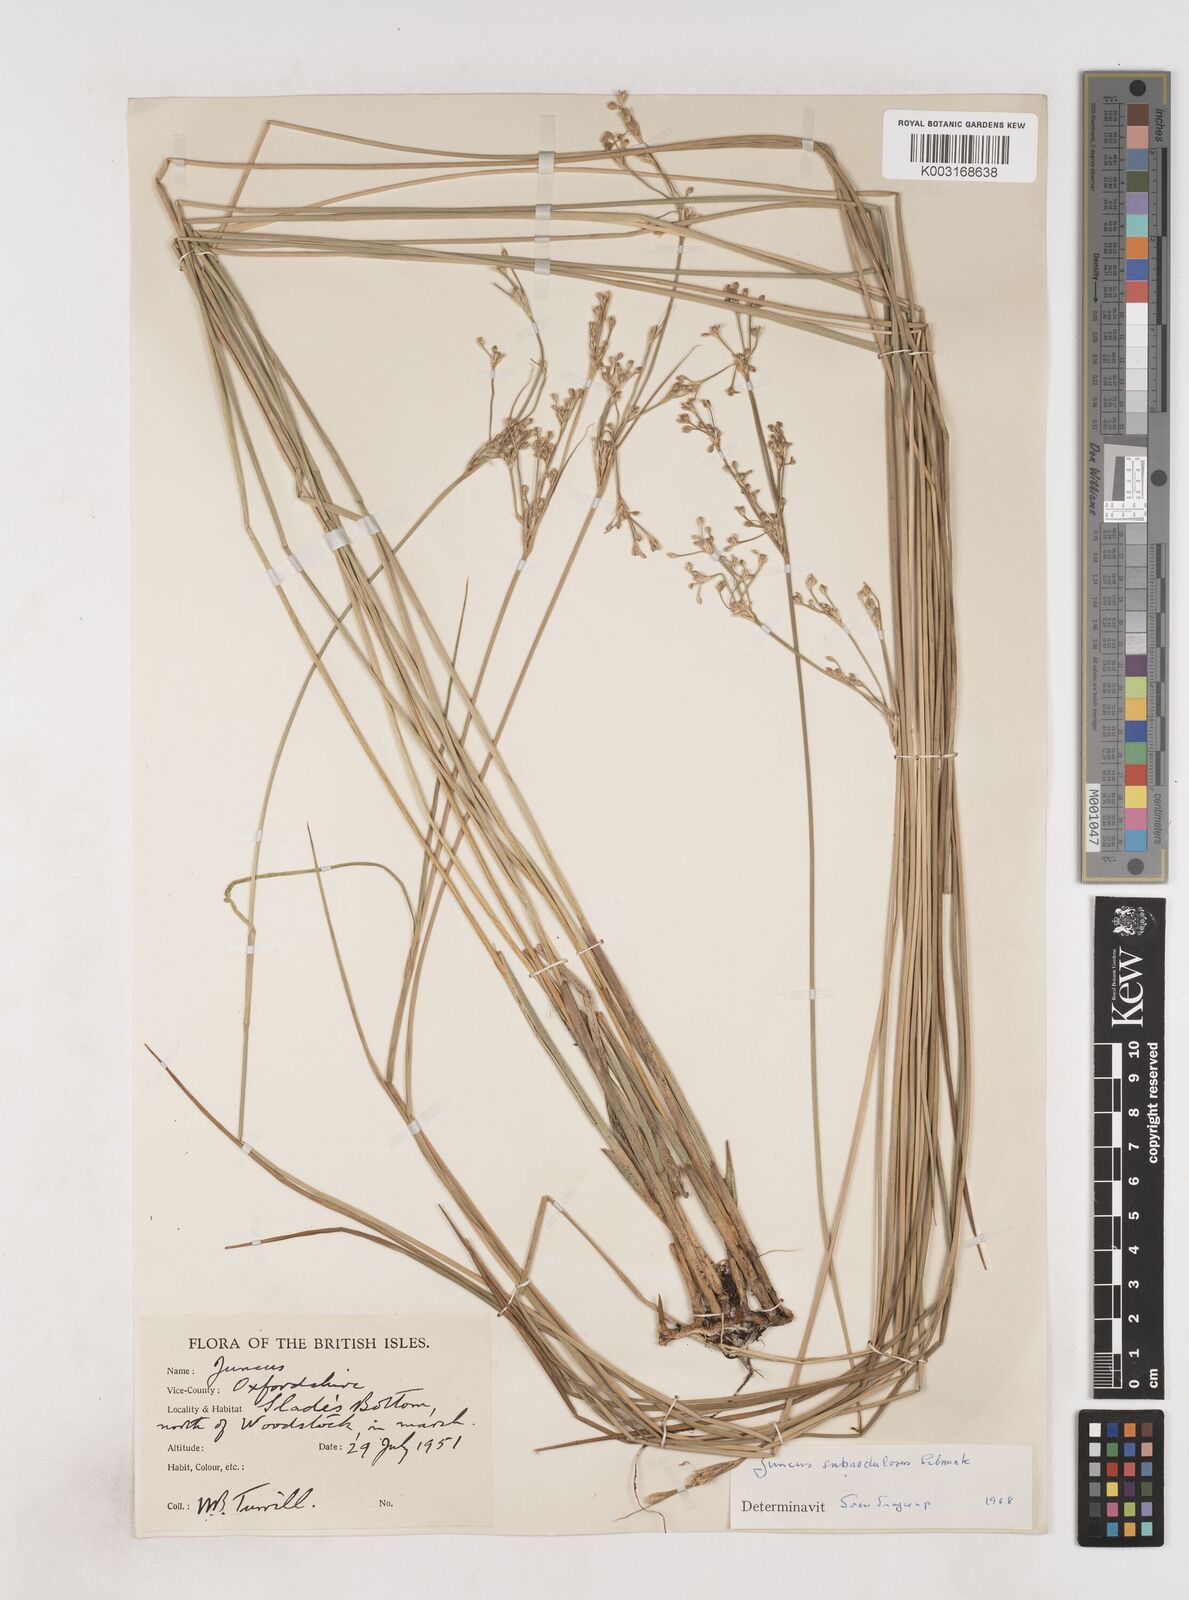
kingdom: Plantae
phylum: Tracheophyta
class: Liliopsida
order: Poales
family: Juncaceae
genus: Juncus
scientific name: Juncus subnodulosus
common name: Blunt-flowered rush
